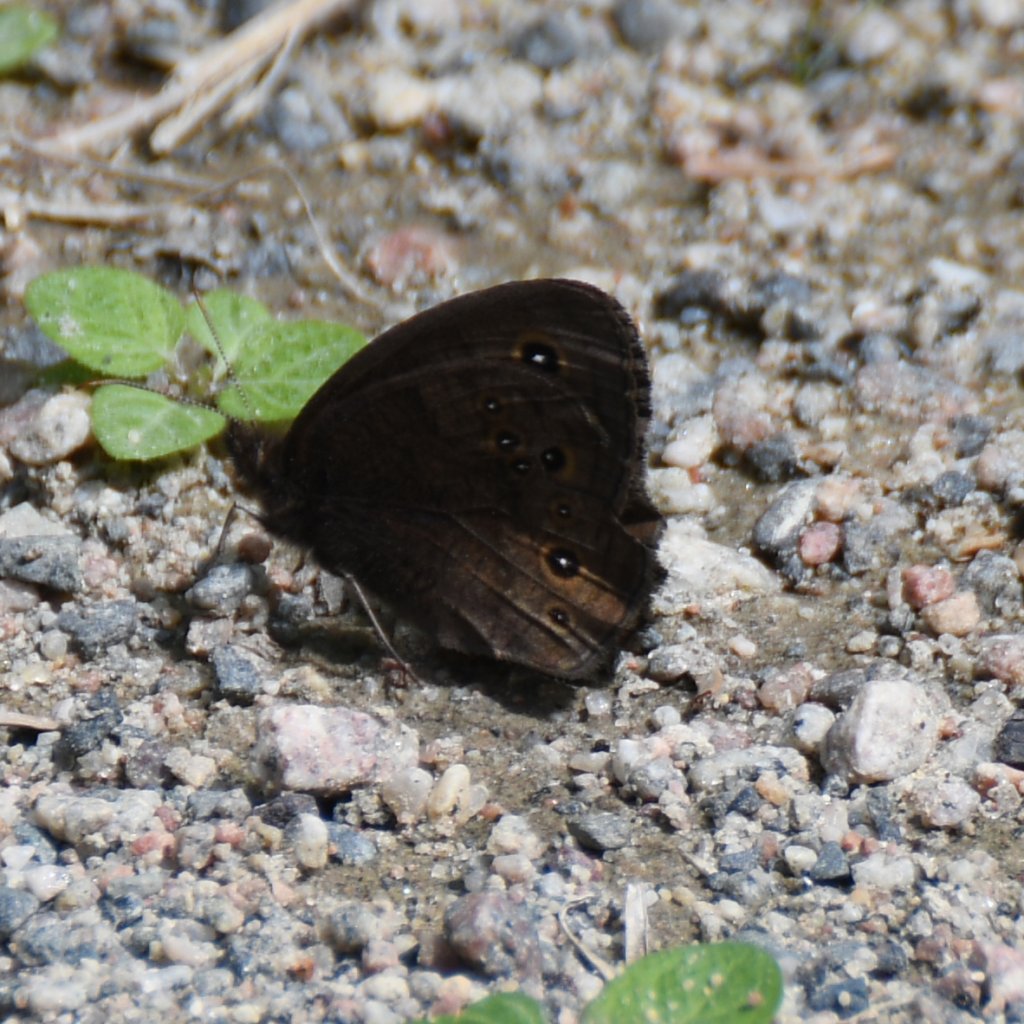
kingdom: Animalia
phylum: Arthropoda
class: Insecta
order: Lepidoptera
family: Nymphalidae
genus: Cercyonis
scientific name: Cercyonis pegala
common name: Common Wood-Nymph
